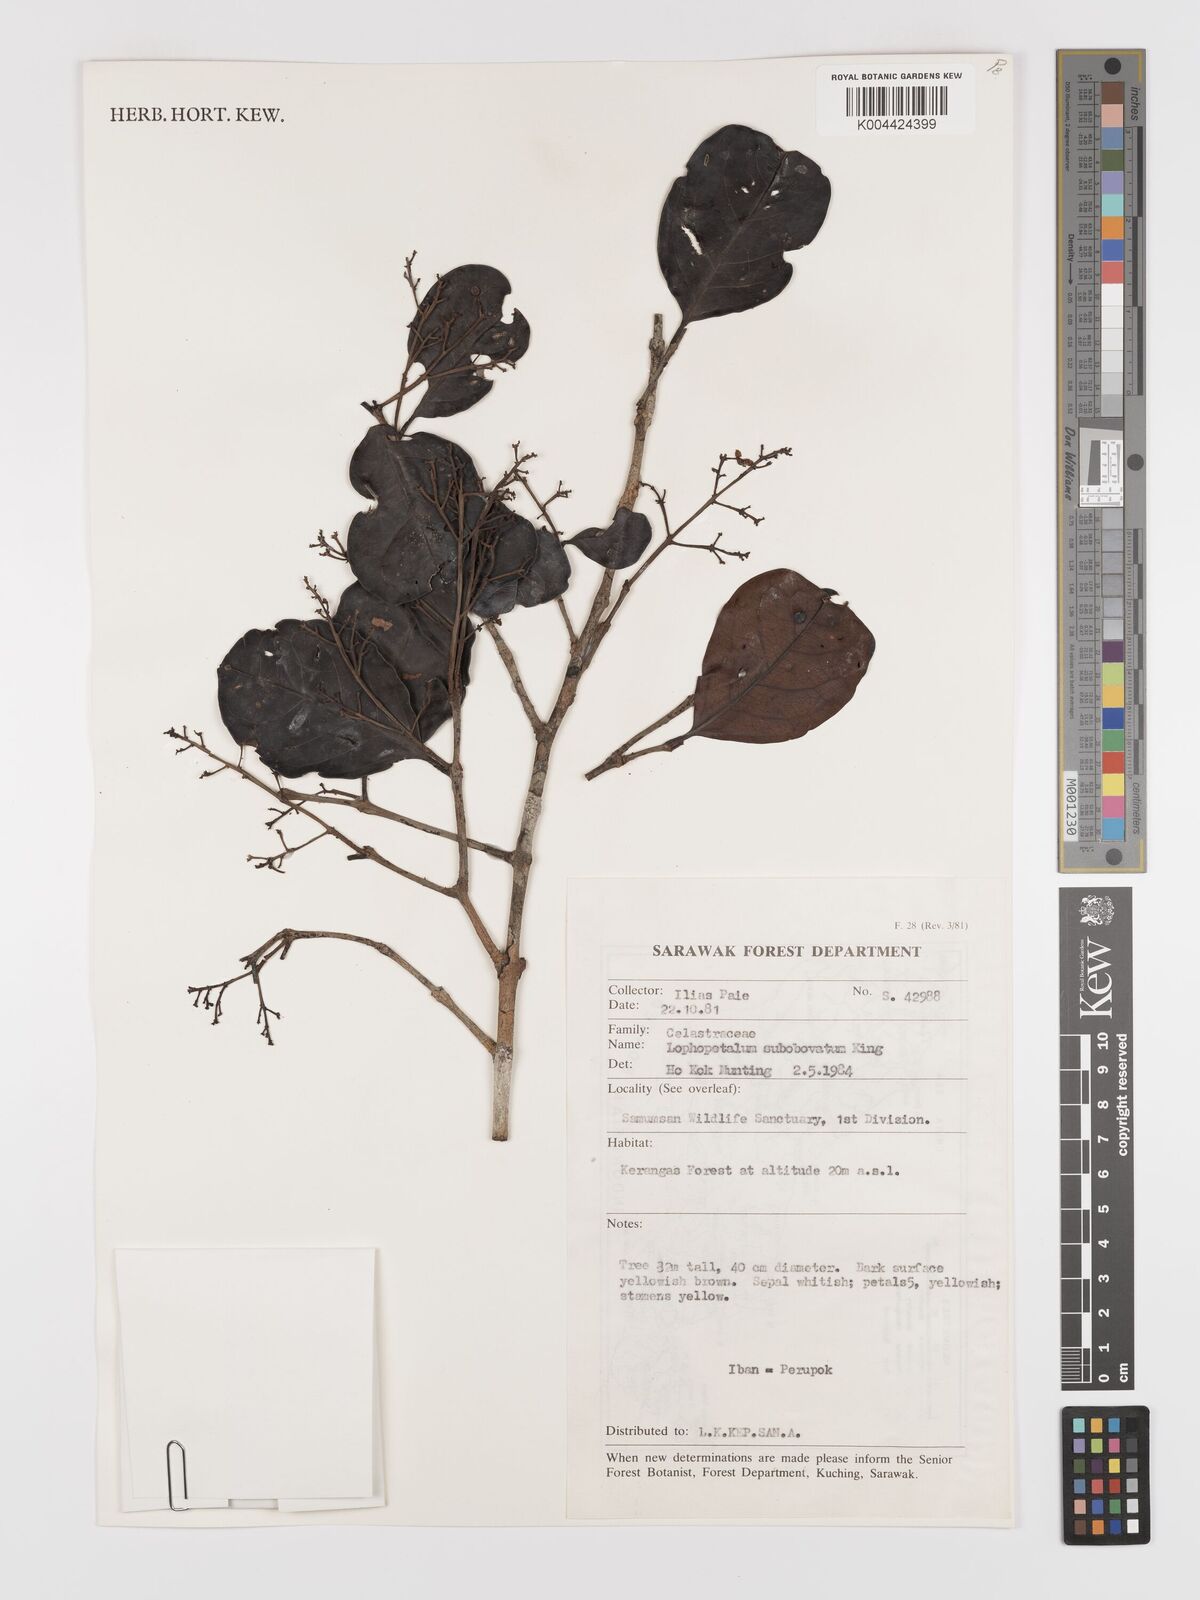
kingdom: Plantae
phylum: Tracheophyta
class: Magnoliopsida
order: Celastrales
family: Celastraceae
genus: Lophopetalum
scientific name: Lophopetalum
